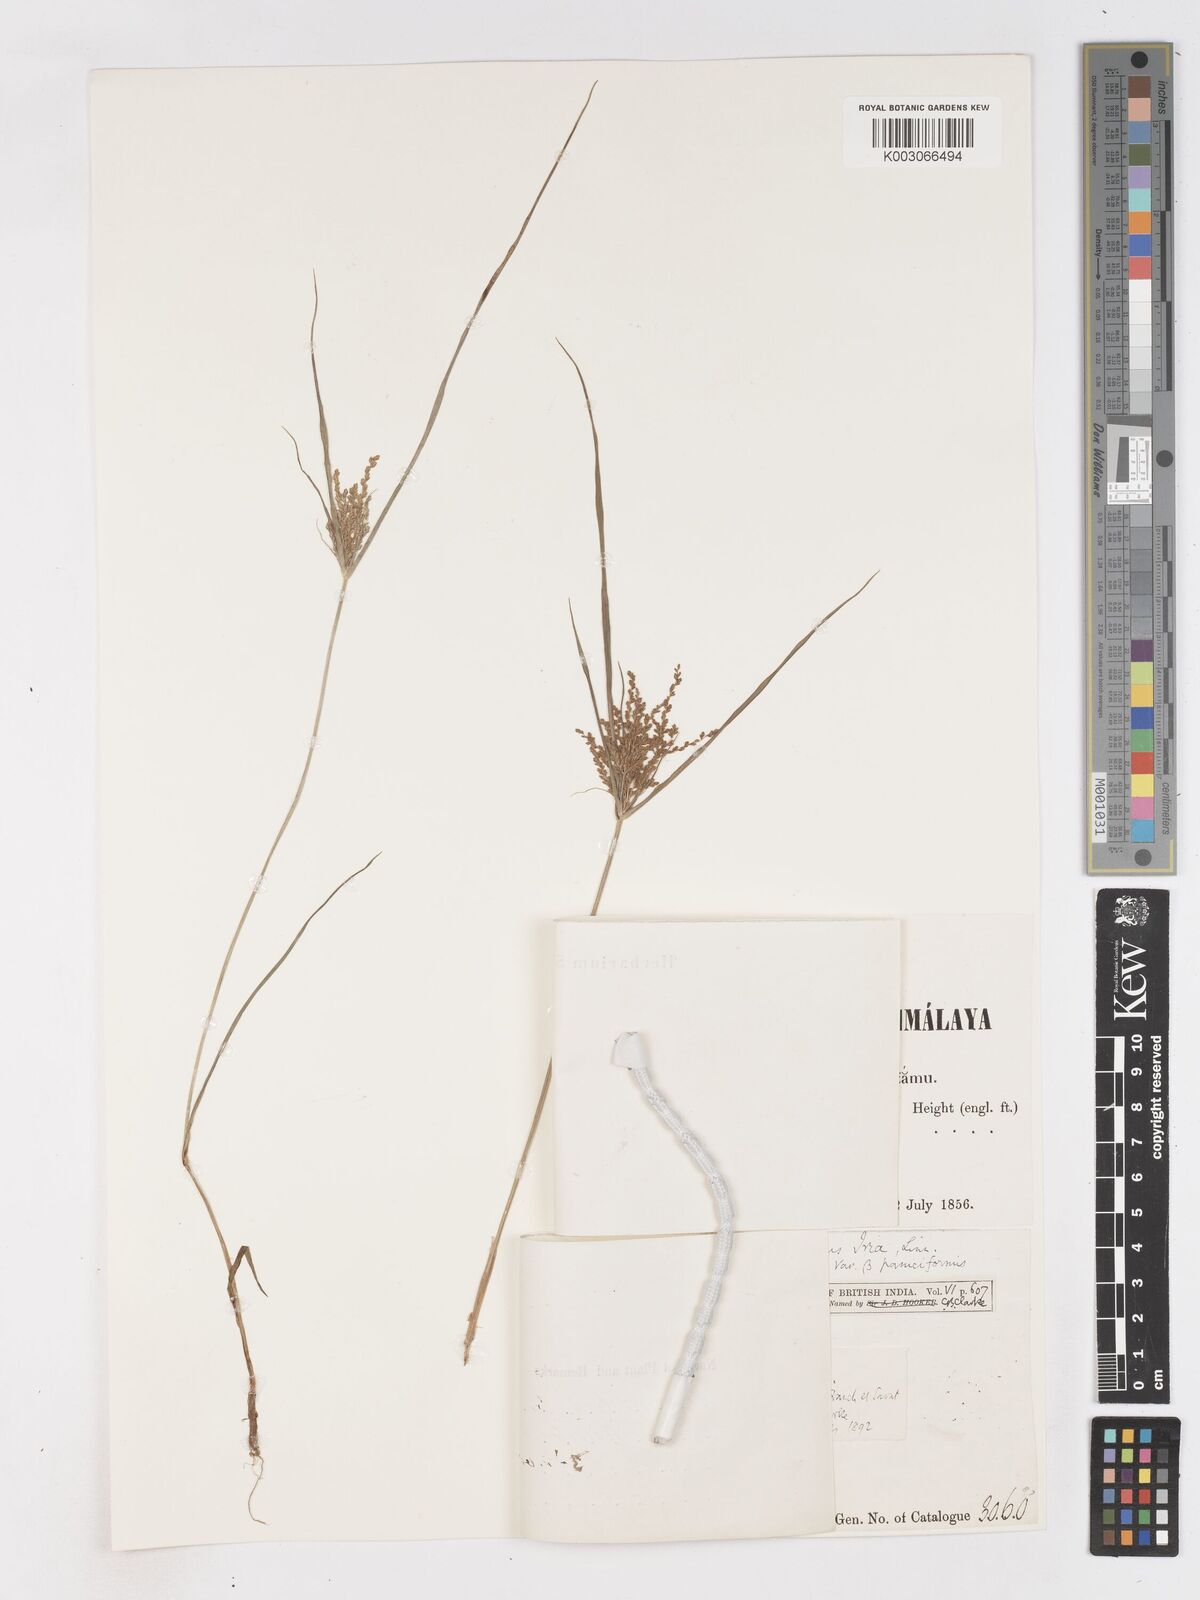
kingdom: Plantae
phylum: Tracheophyta
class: Liliopsida
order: Poales
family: Cyperaceae
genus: Cyperus
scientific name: Cyperus iria
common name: Ricefield flatsedge
